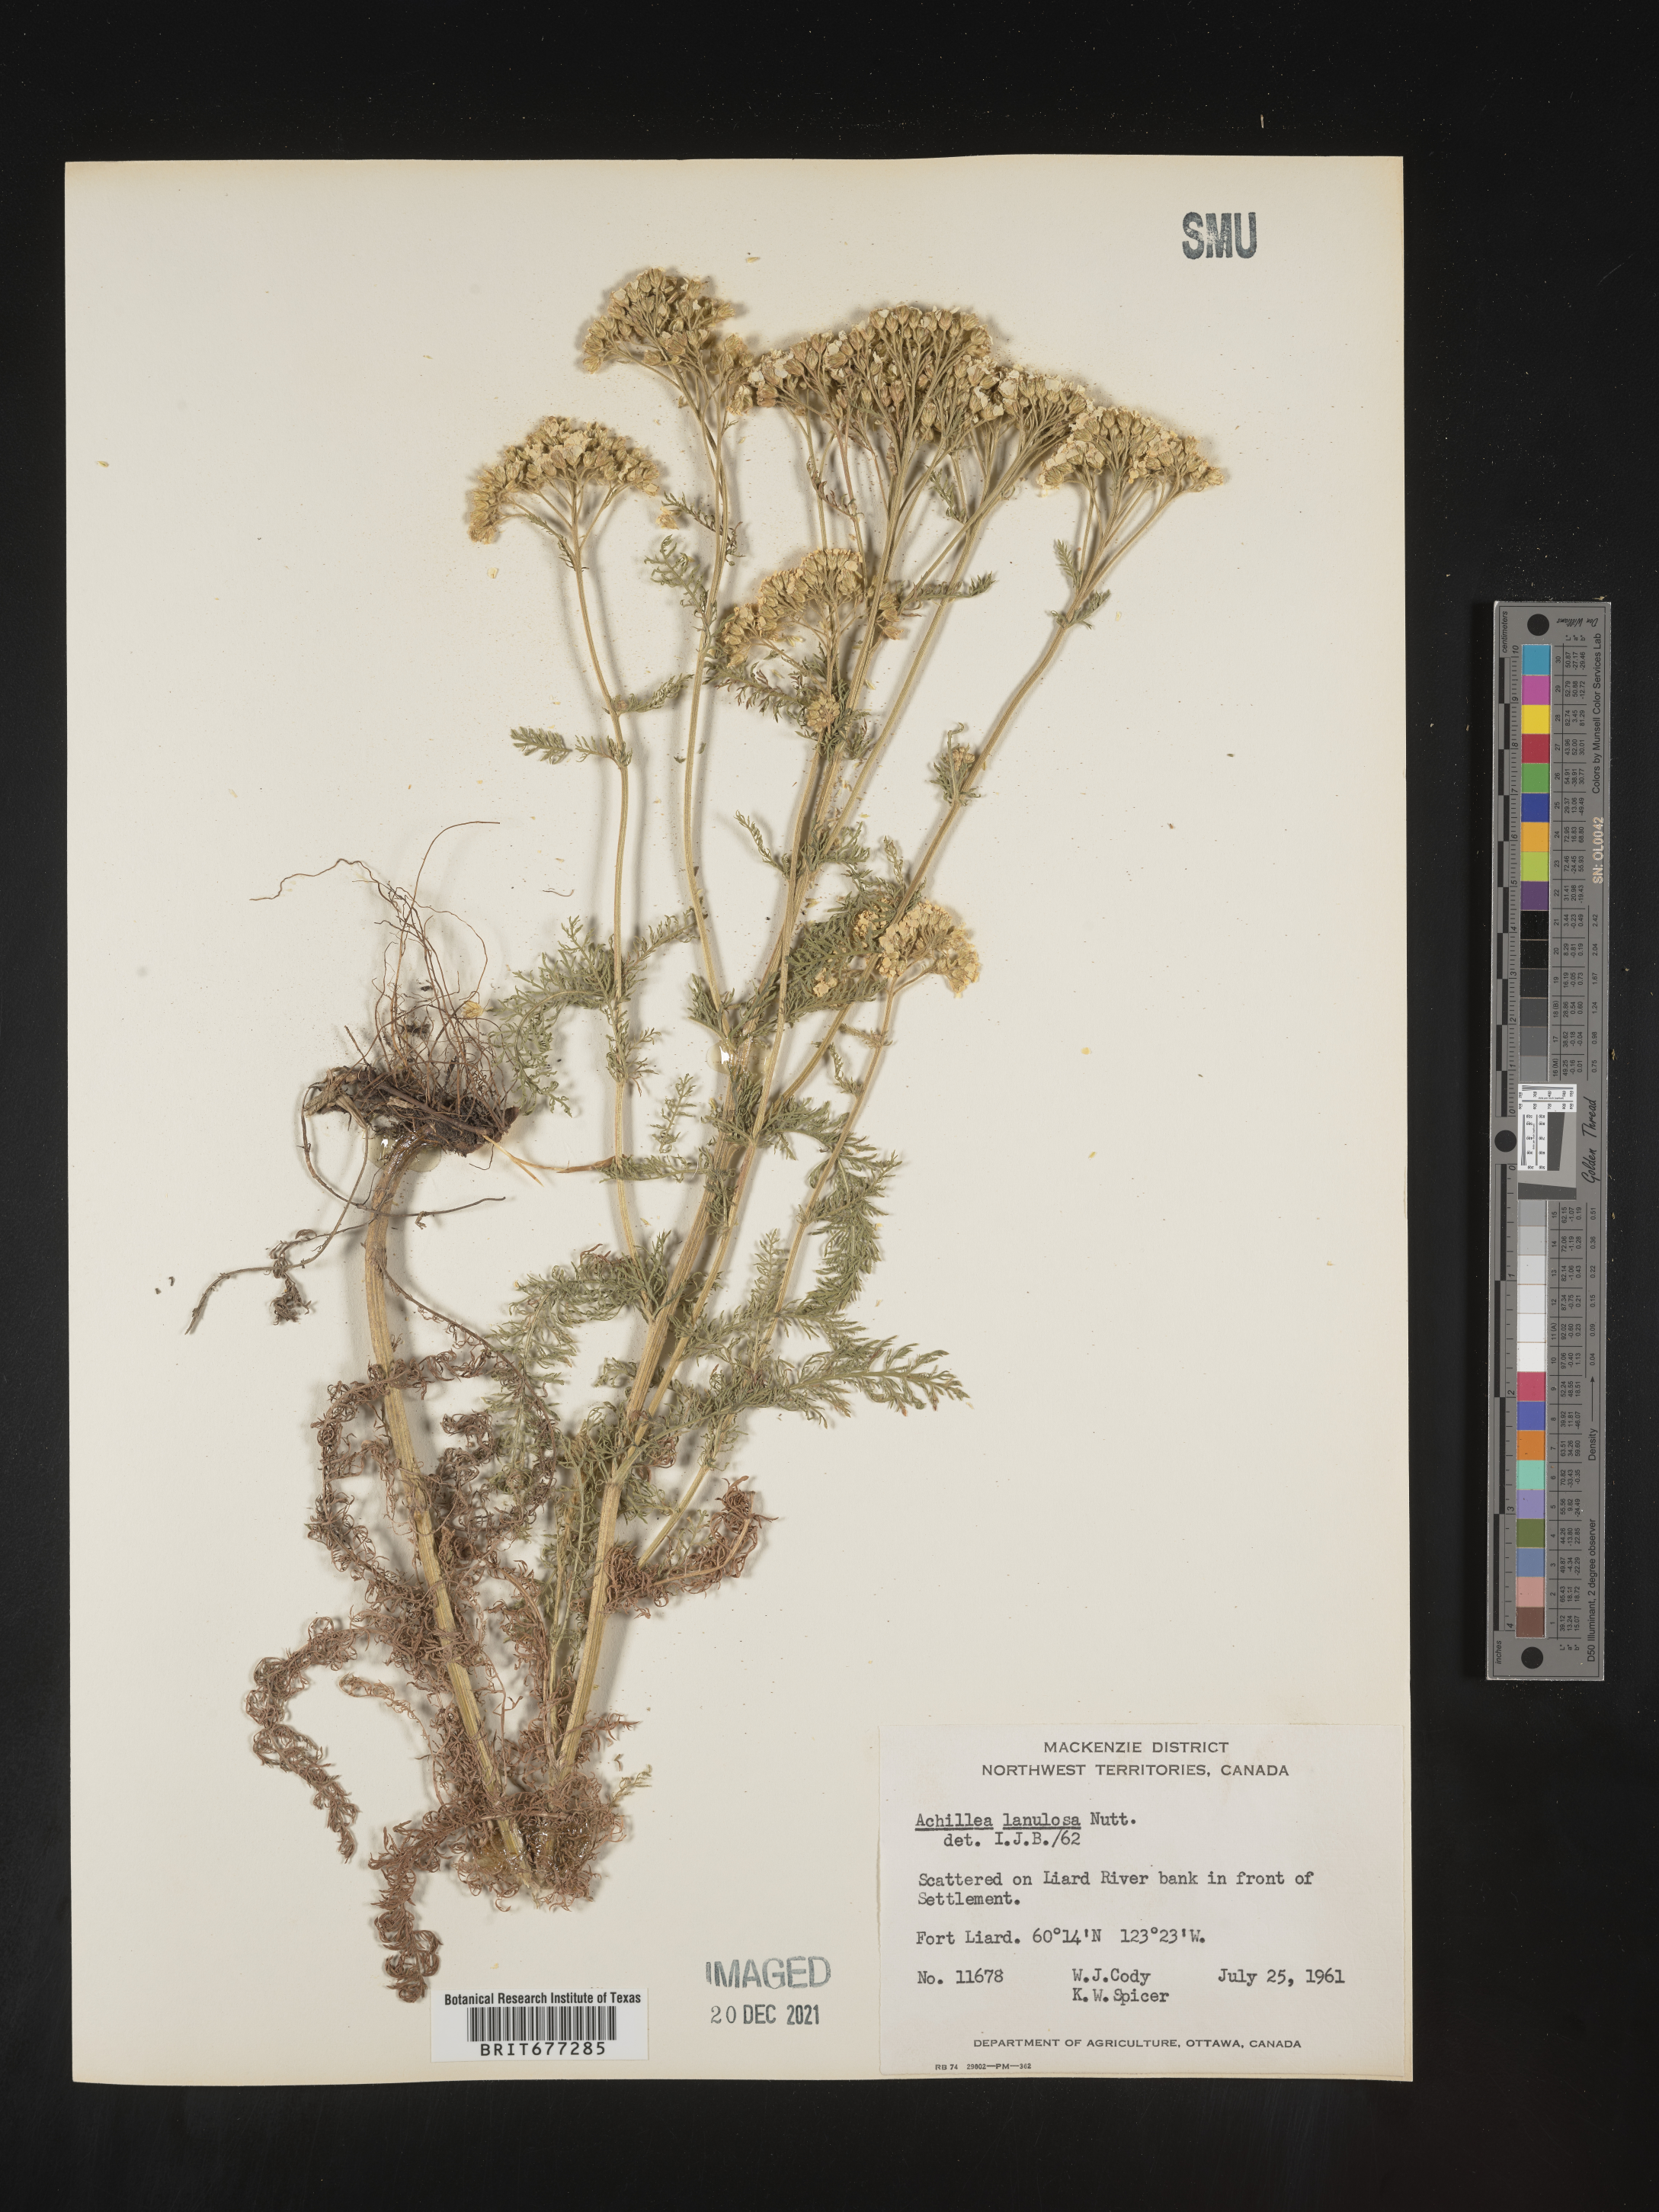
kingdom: Plantae
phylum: Tracheophyta
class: Magnoliopsida
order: Asterales
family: Asteraceae
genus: Achillea
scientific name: Achillea
